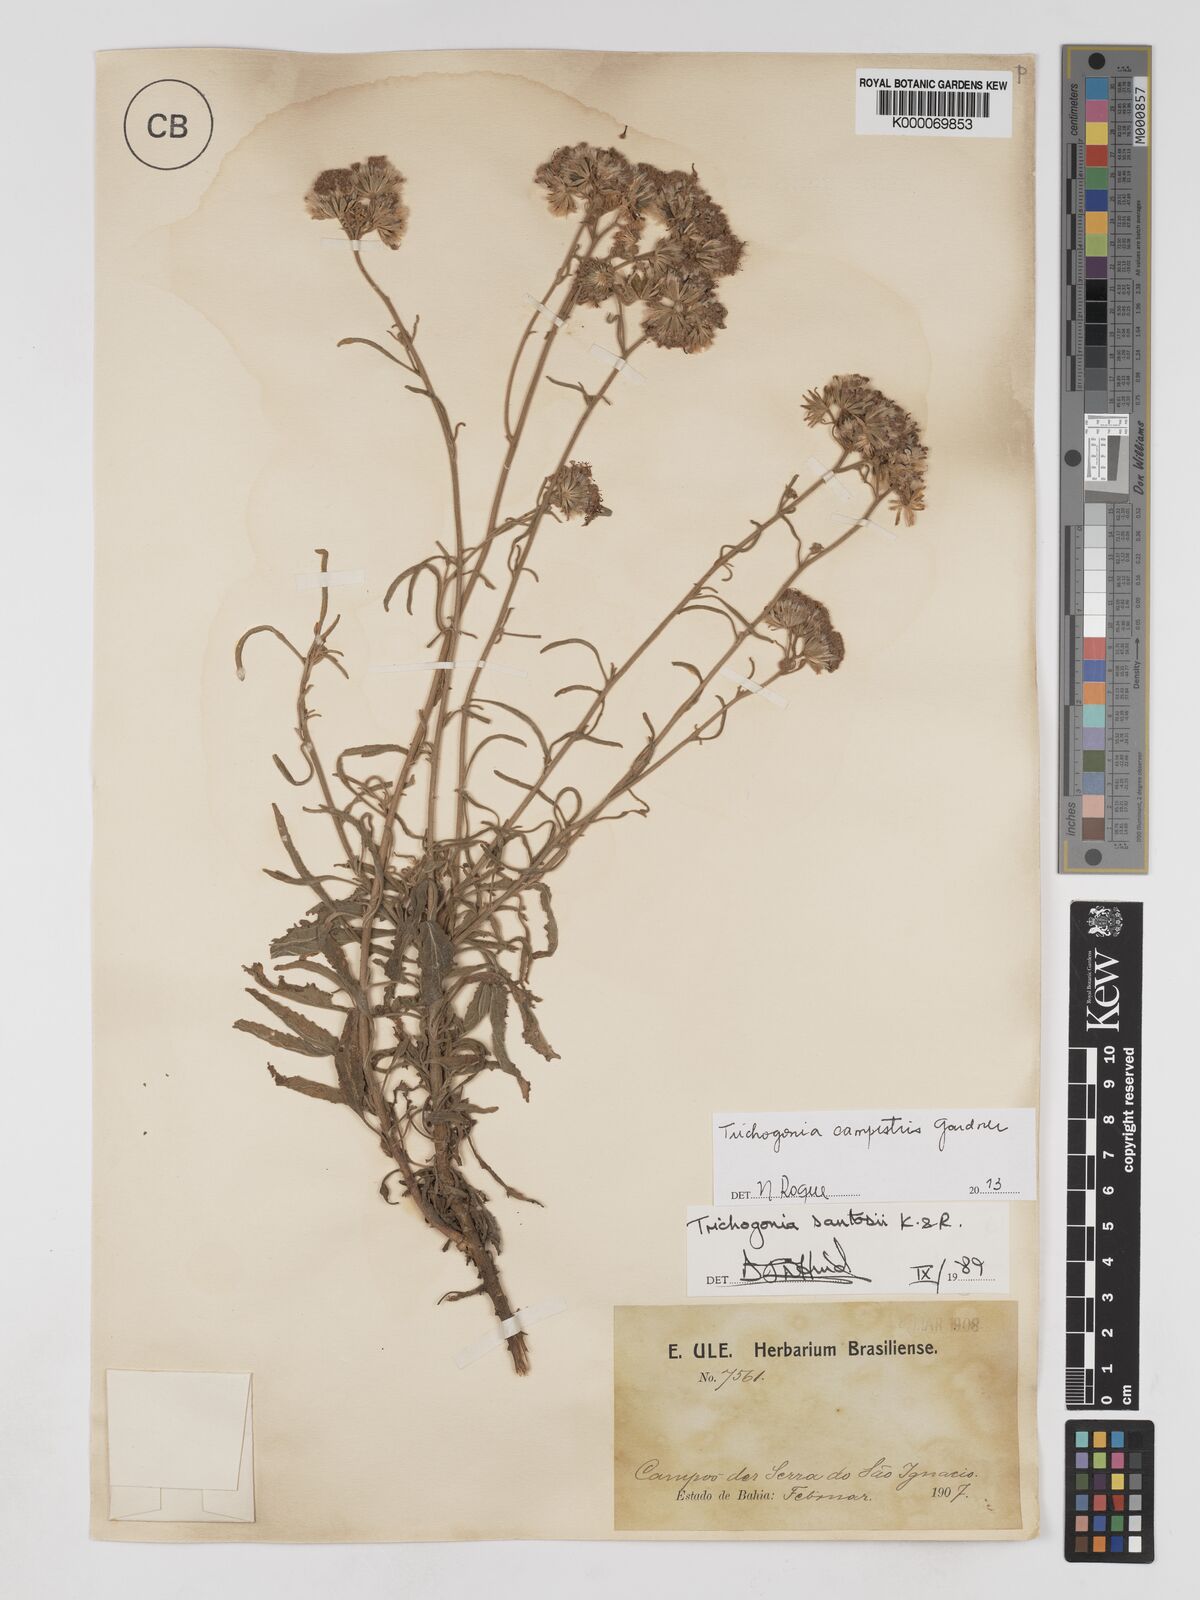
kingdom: Plantae
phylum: Tracheophyta
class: Magnoliopsida
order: Asterales
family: Asteraceae
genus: Trichogonia
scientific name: Trichogonia santosii
